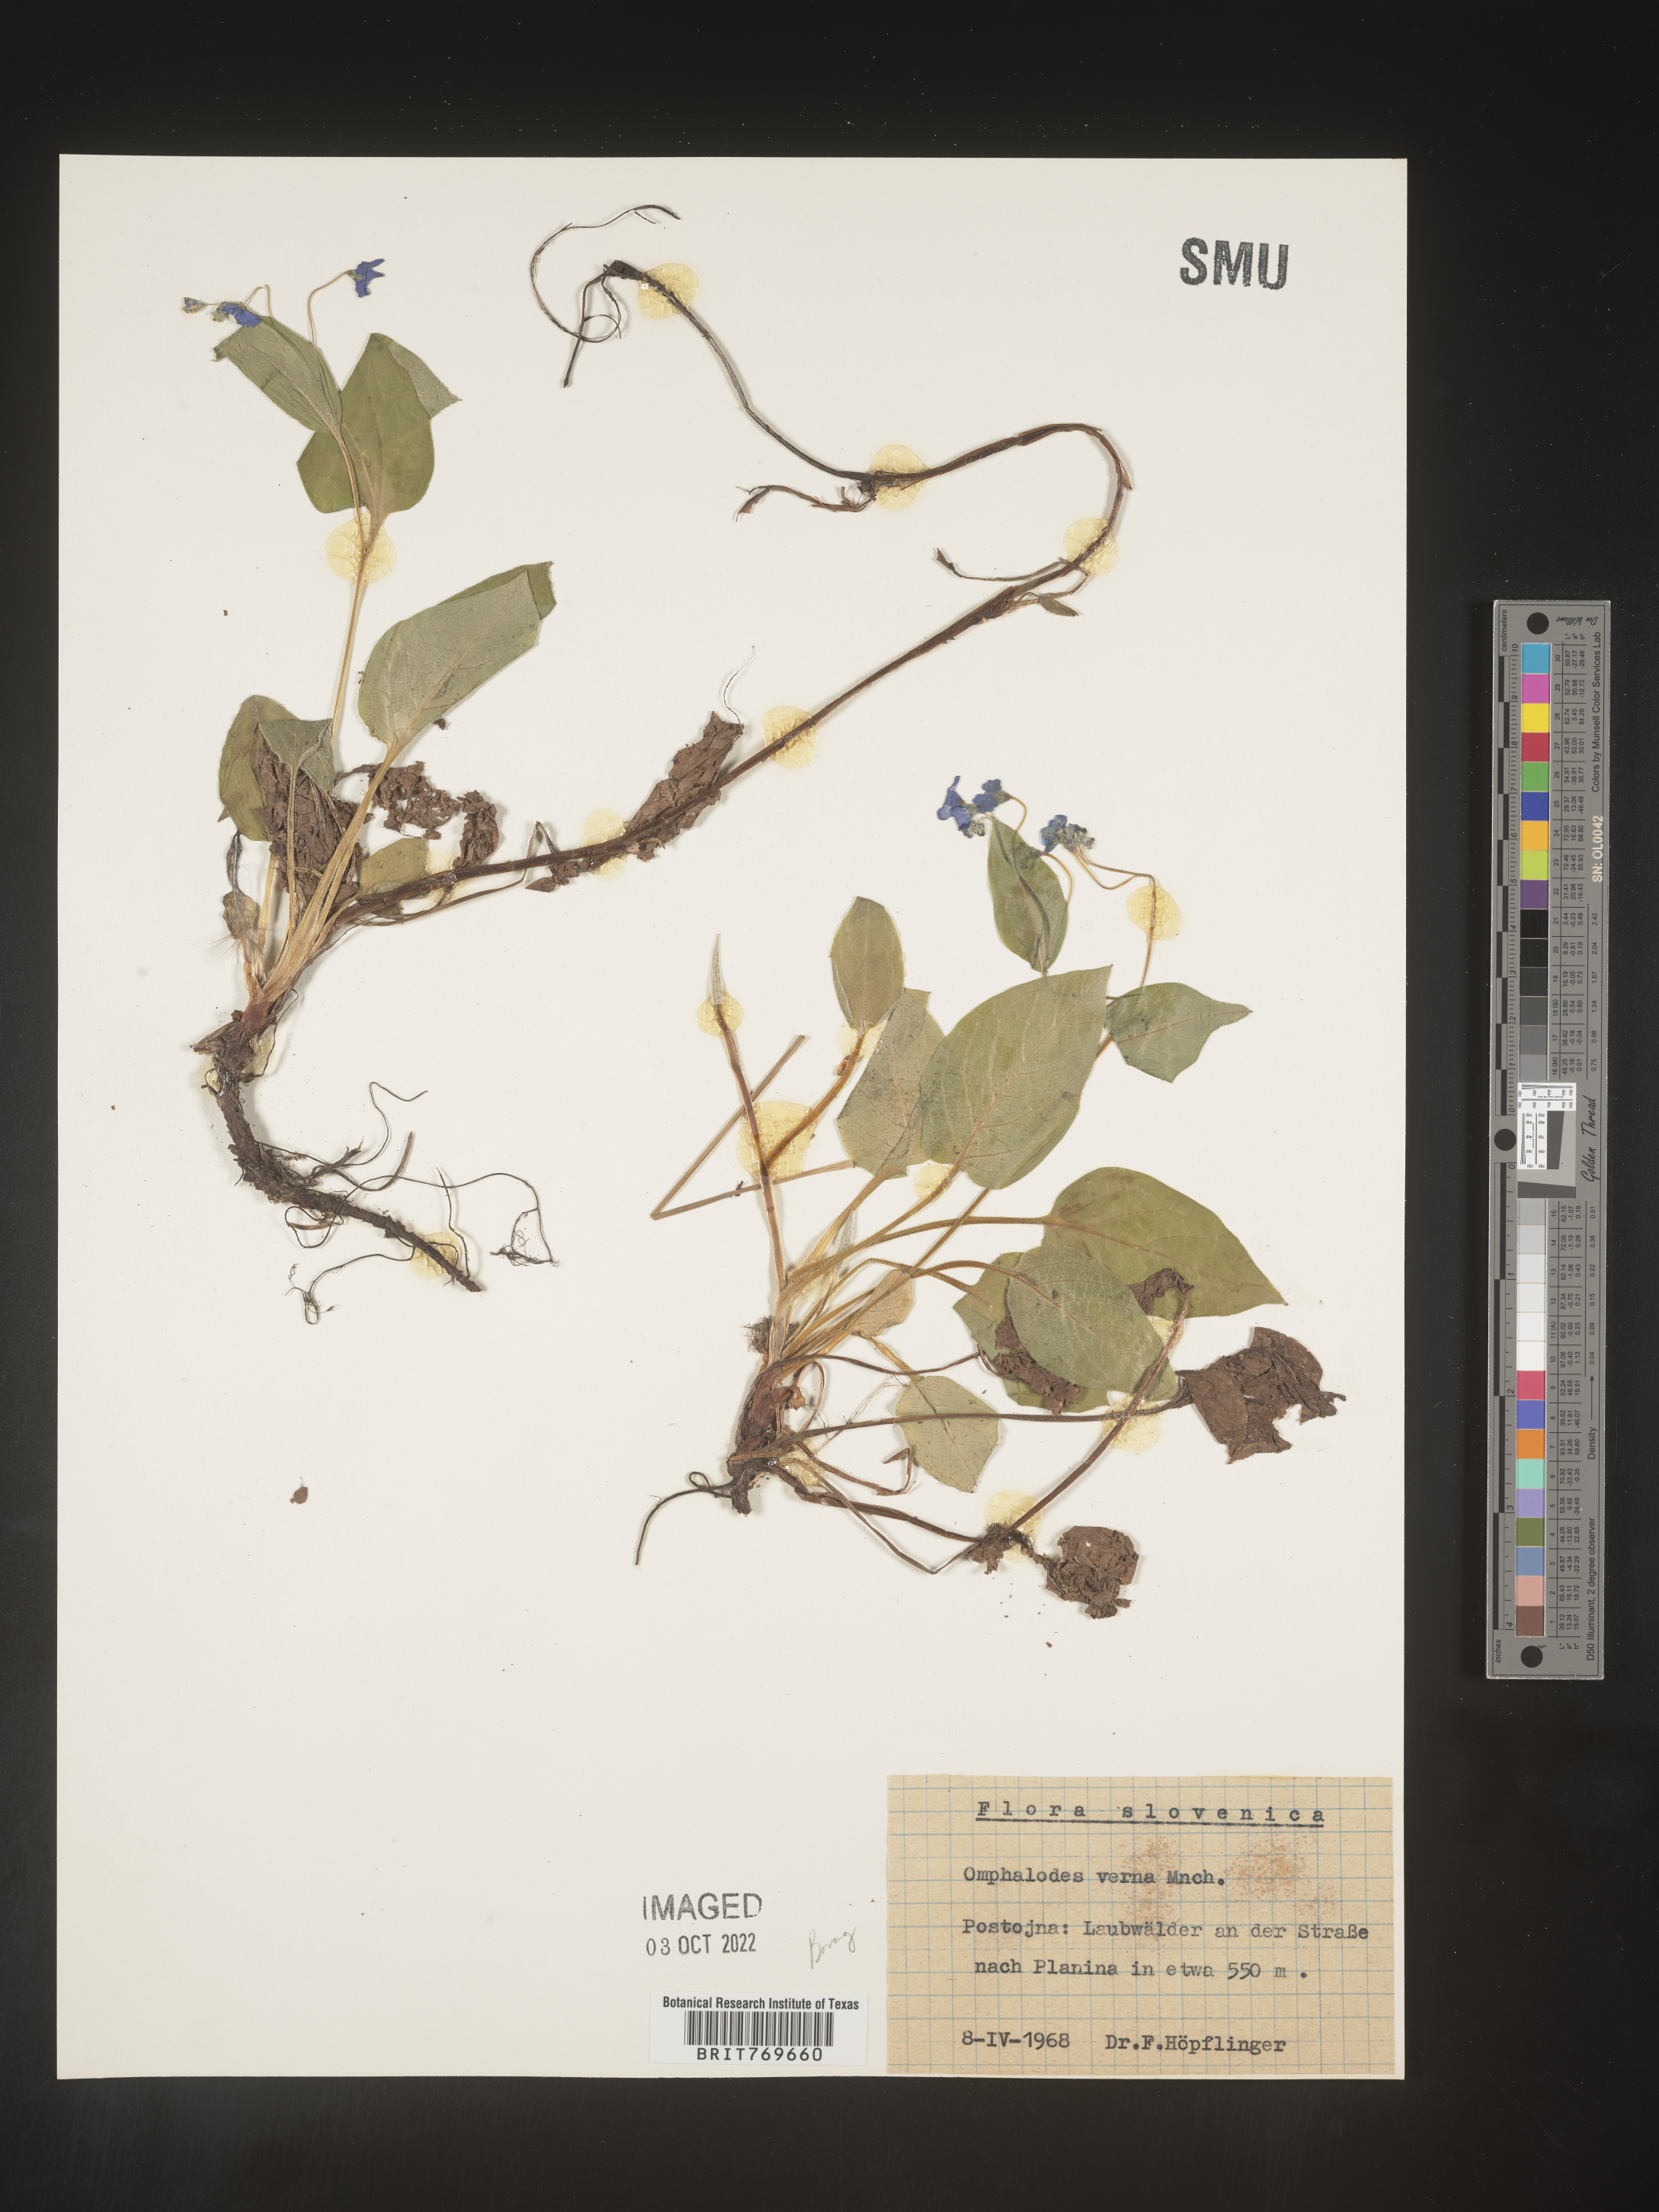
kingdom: Plantae
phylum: Tracheophyta
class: Magnoliopsida
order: Boraginales
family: Boraginaceae
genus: Omphalodes
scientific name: Omphalodes
